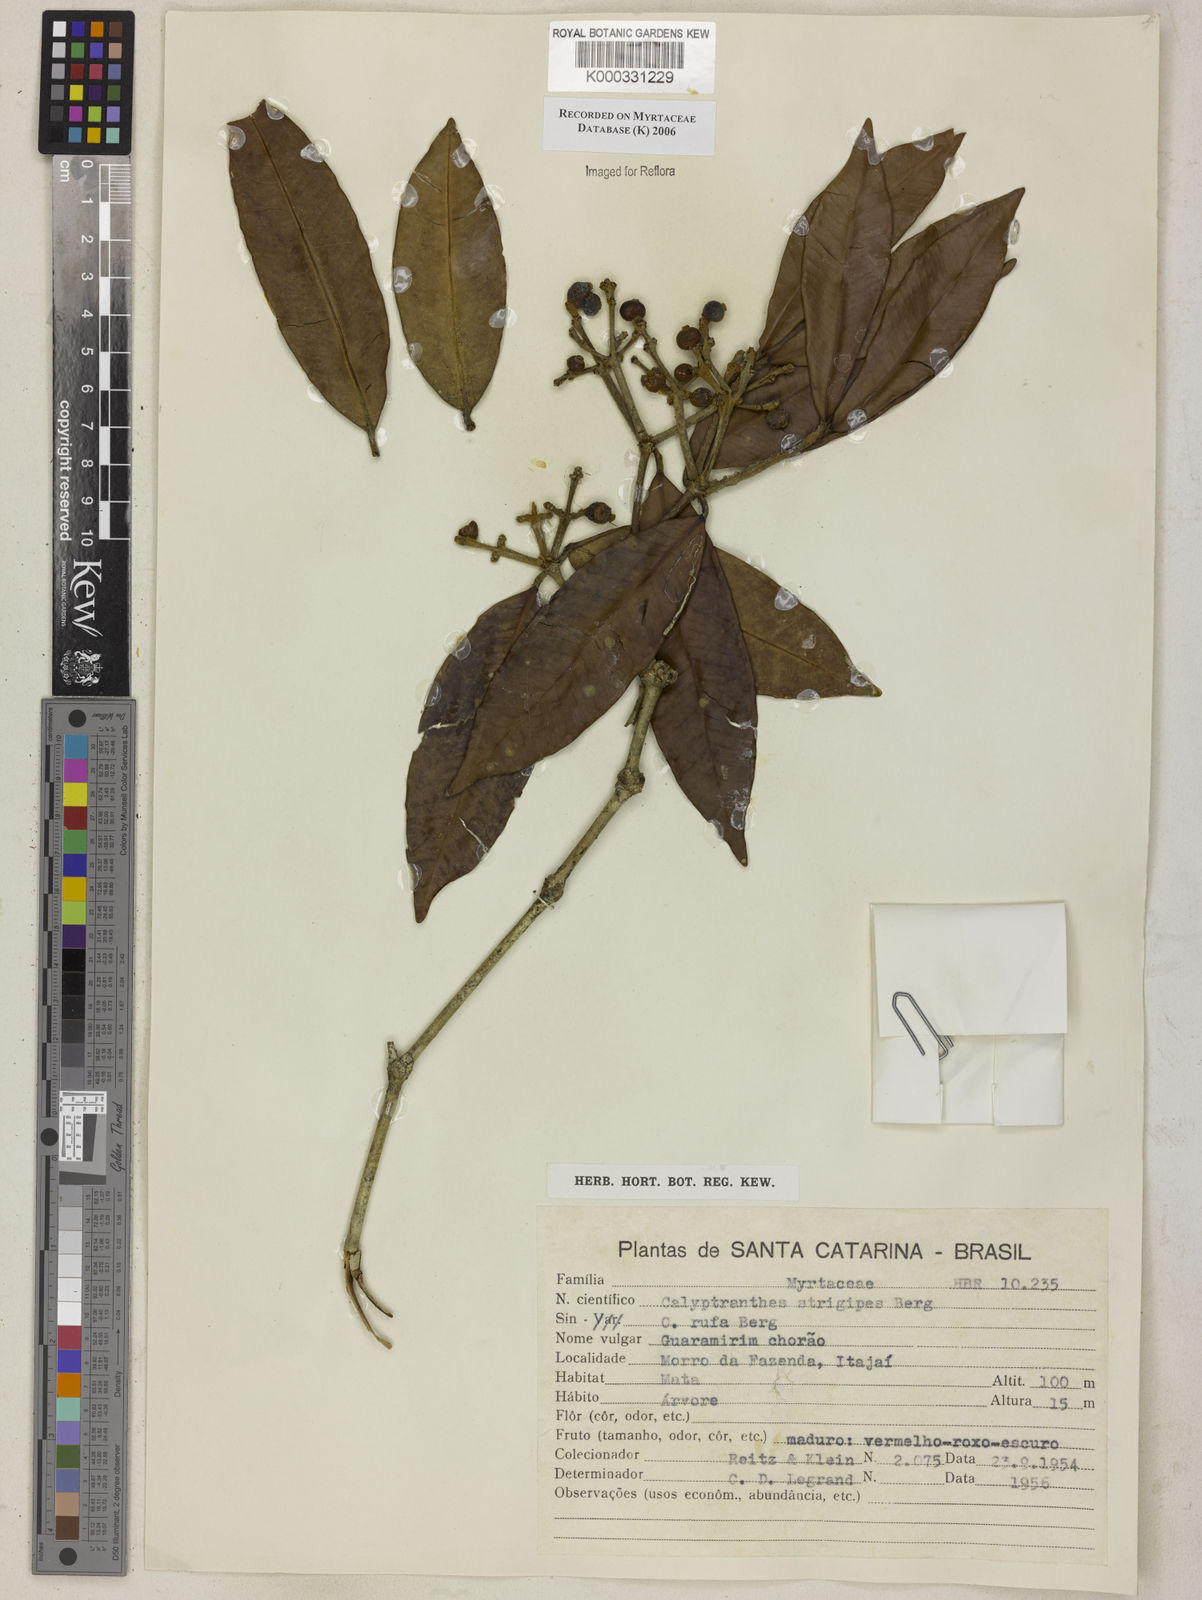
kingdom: Plantae
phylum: Tracheophyta
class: Magnoliopsida
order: Myrtales
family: Myrtaceae
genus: Myrcia
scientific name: Myrcia strigosa
